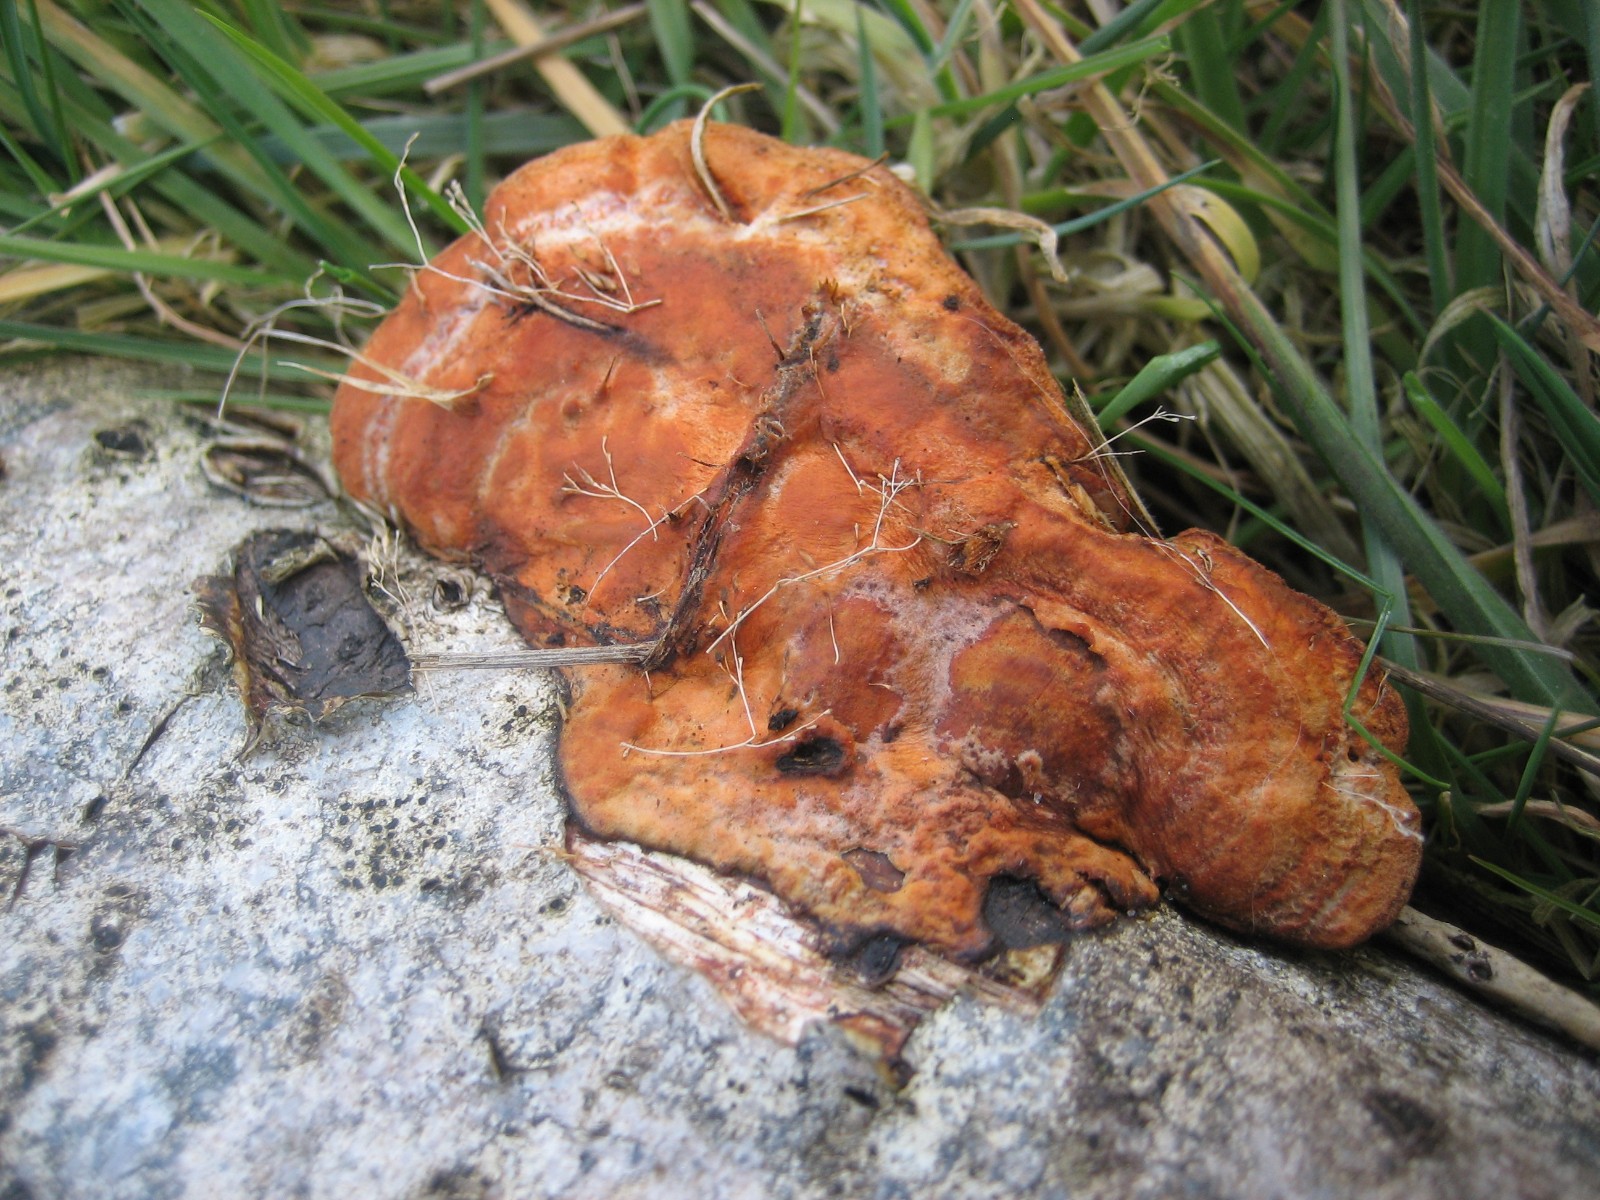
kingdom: Fungi
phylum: Basidiomycota
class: Agaricomycetes
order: Polyporales
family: Polyporaceae
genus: Trametes
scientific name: Trametes cinnabarina
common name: cinnoberporesvamp
